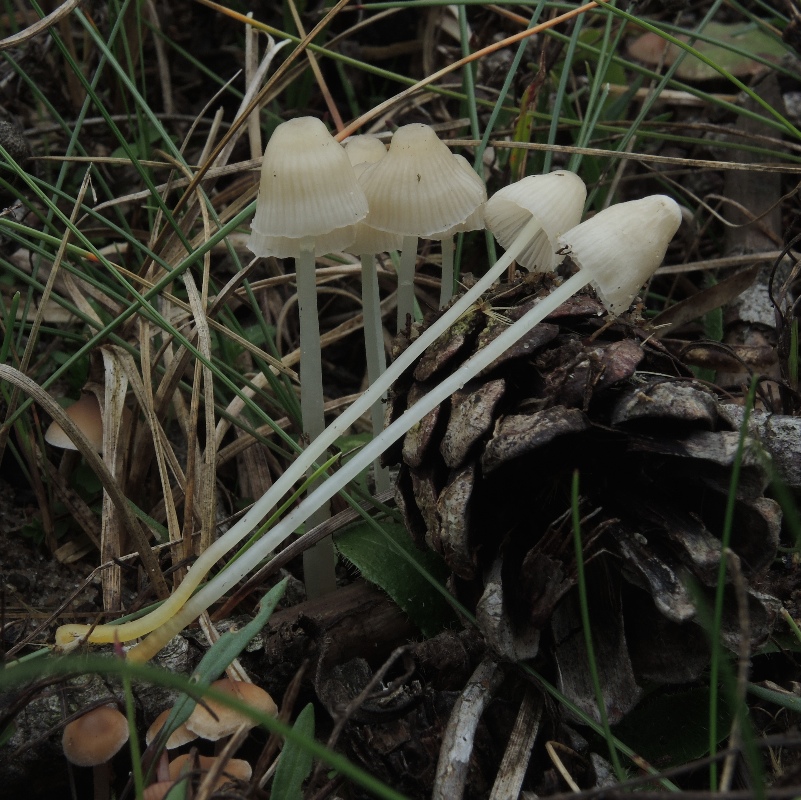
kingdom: Fungi
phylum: Basidiomycota
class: Agaricomycetes
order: Agaricales
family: Mycenaceae
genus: Atheniella
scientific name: Atheniella flavoalba
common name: gulhvid huesvamp
